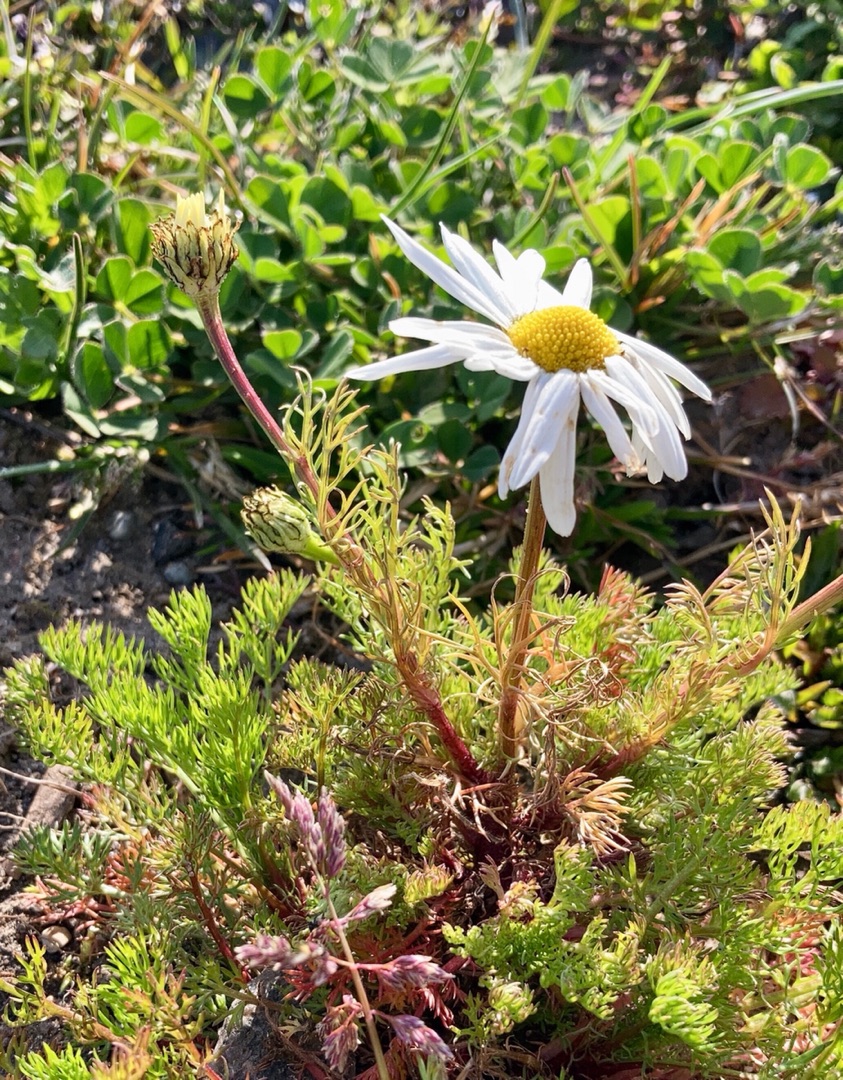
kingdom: Plantae
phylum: Tracheophyta
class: Magnoliopsida
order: Asterales
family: Asteraceae
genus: Tripleurospermum
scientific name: Tripleurospermum
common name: Kamille (Tripleurospermum-slægten)
